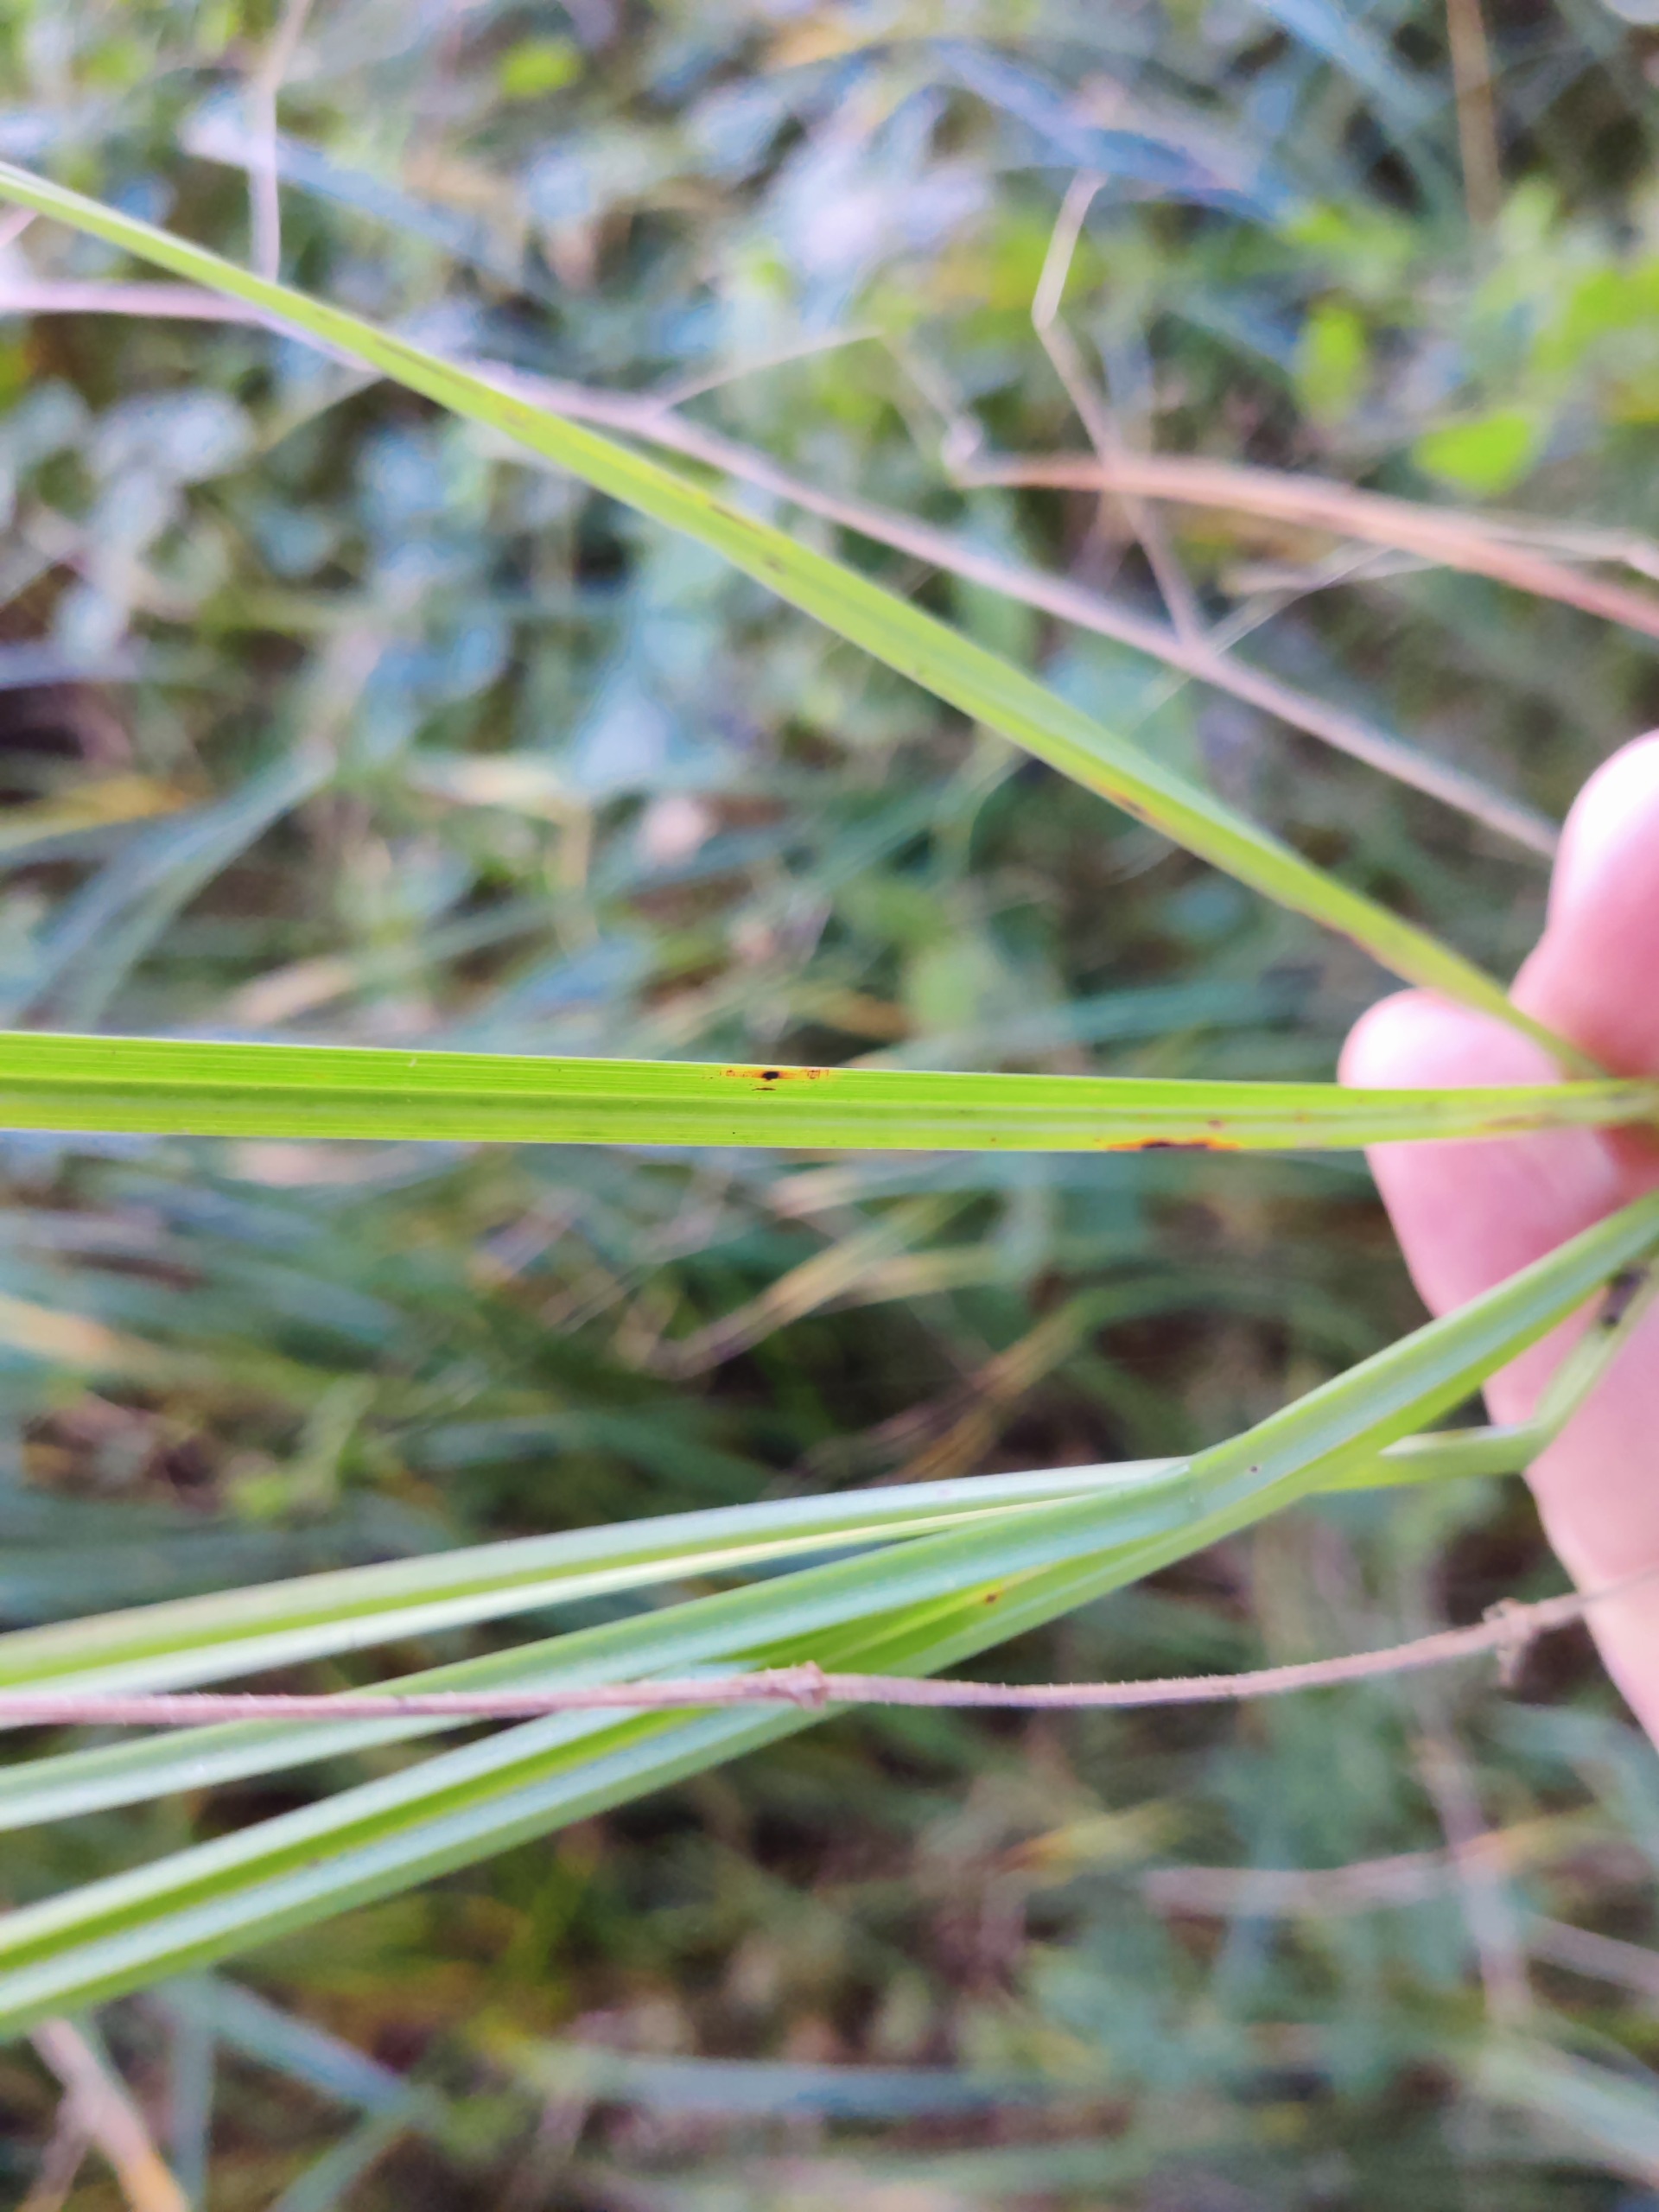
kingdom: Plantae
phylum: Tracheophyta
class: Liliopsida
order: Poales
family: Cyperaceae
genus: Carex
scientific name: Carex acutiformis
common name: Kær-star
